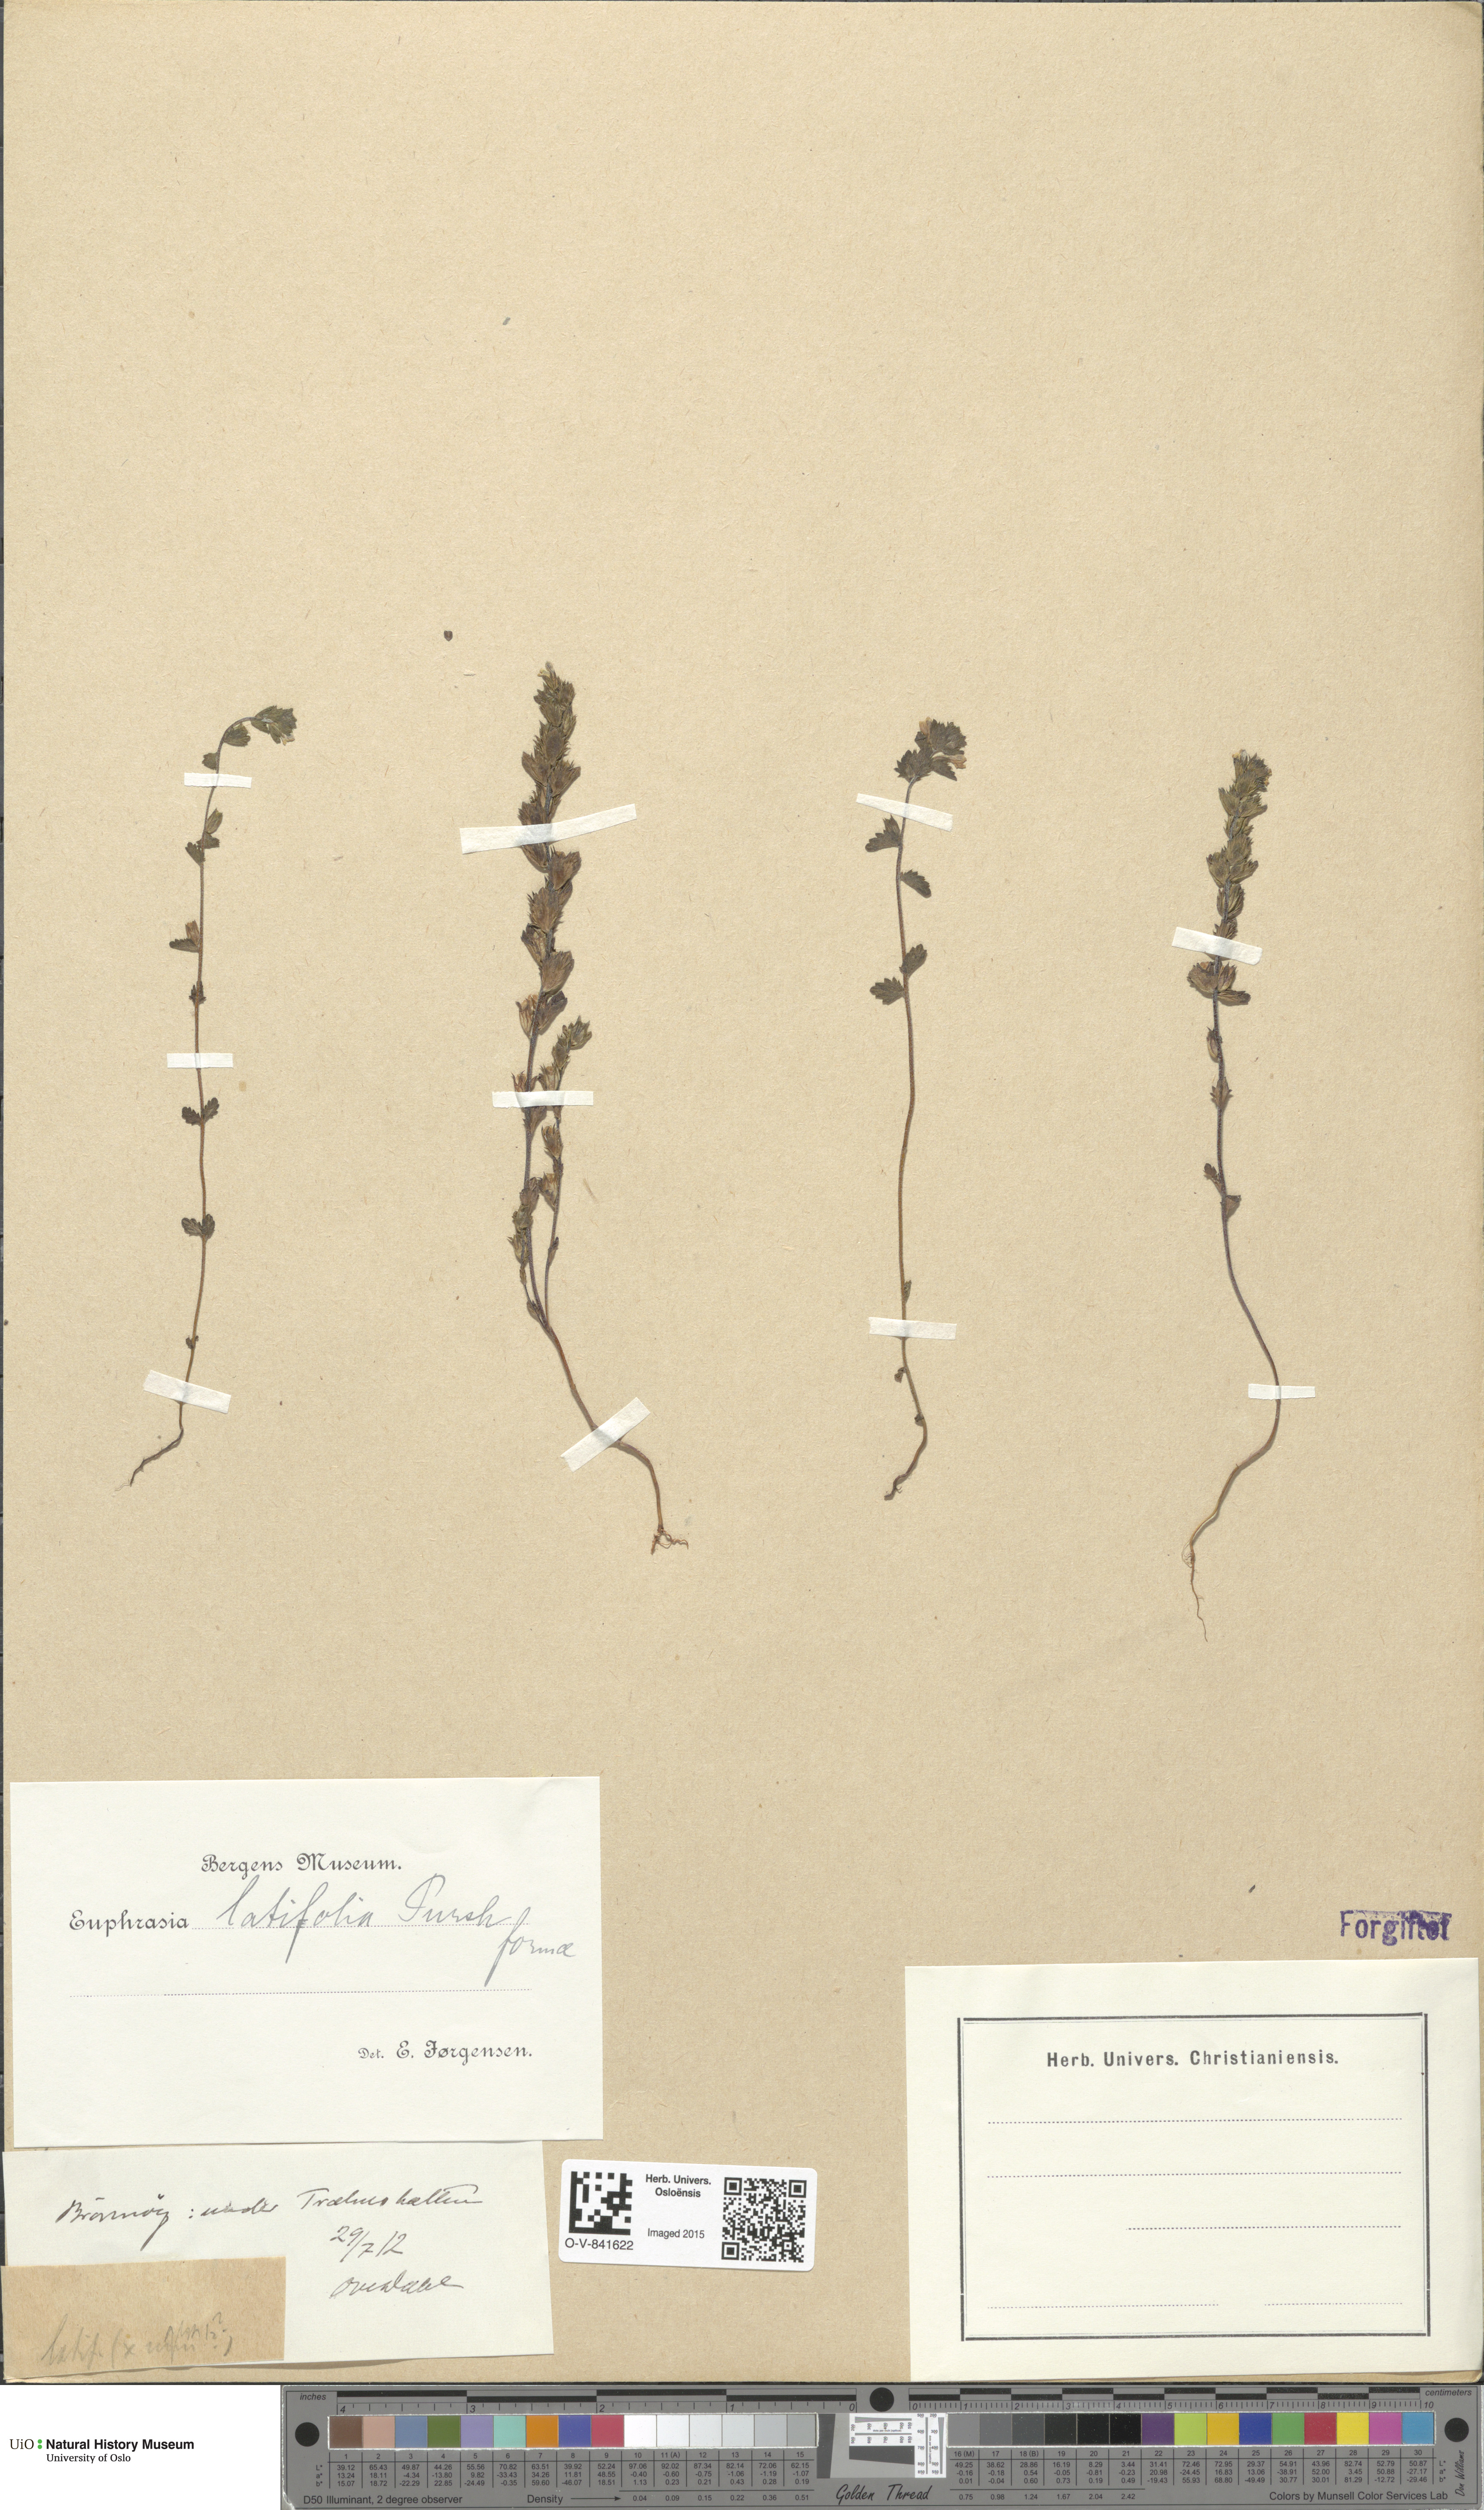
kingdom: Plantae
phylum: Tracheophyta
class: Magnoliopsida
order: Lamiales
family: Orobanchaceae
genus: Euphrasia
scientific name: Euphrasia wettsteinii
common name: Wettstein's eyebright
